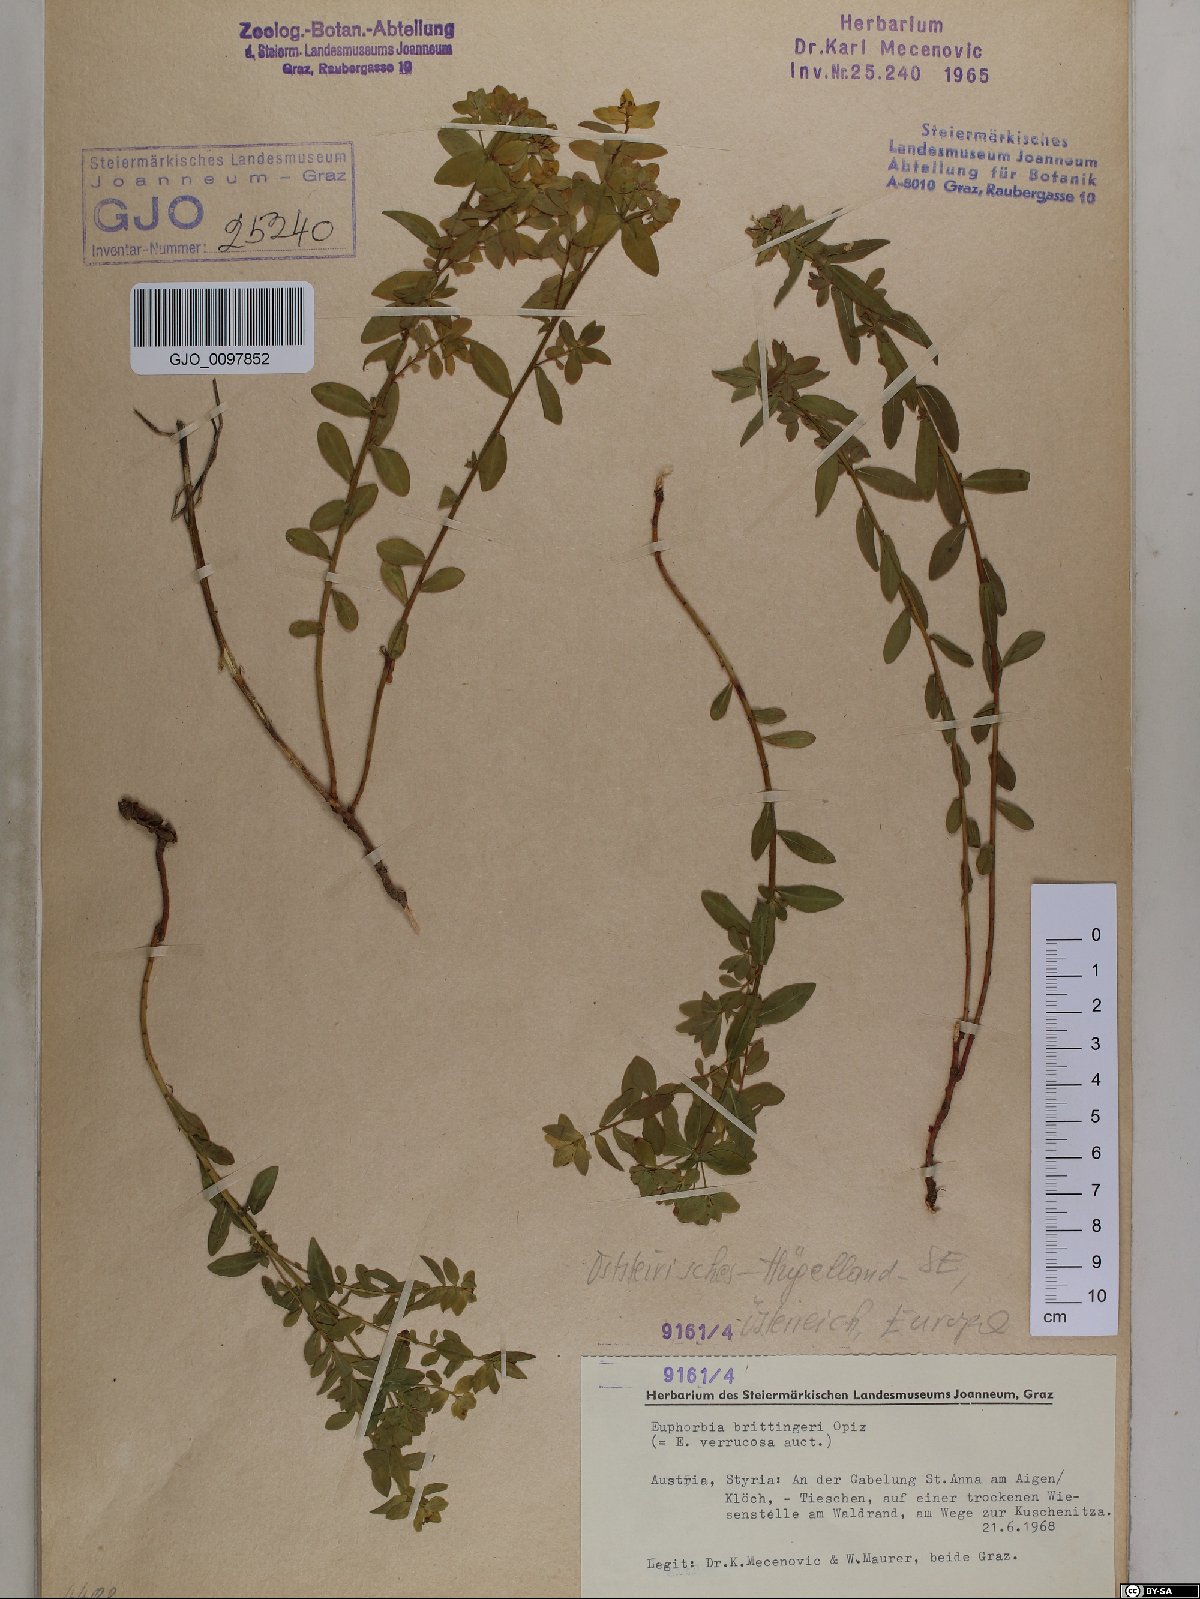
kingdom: Plantae
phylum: Tracheophyta
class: Magnoliopsida
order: Malpighiales
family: Euphorbiaceae
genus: Euphorbia
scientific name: Euphorbia verrucosa
